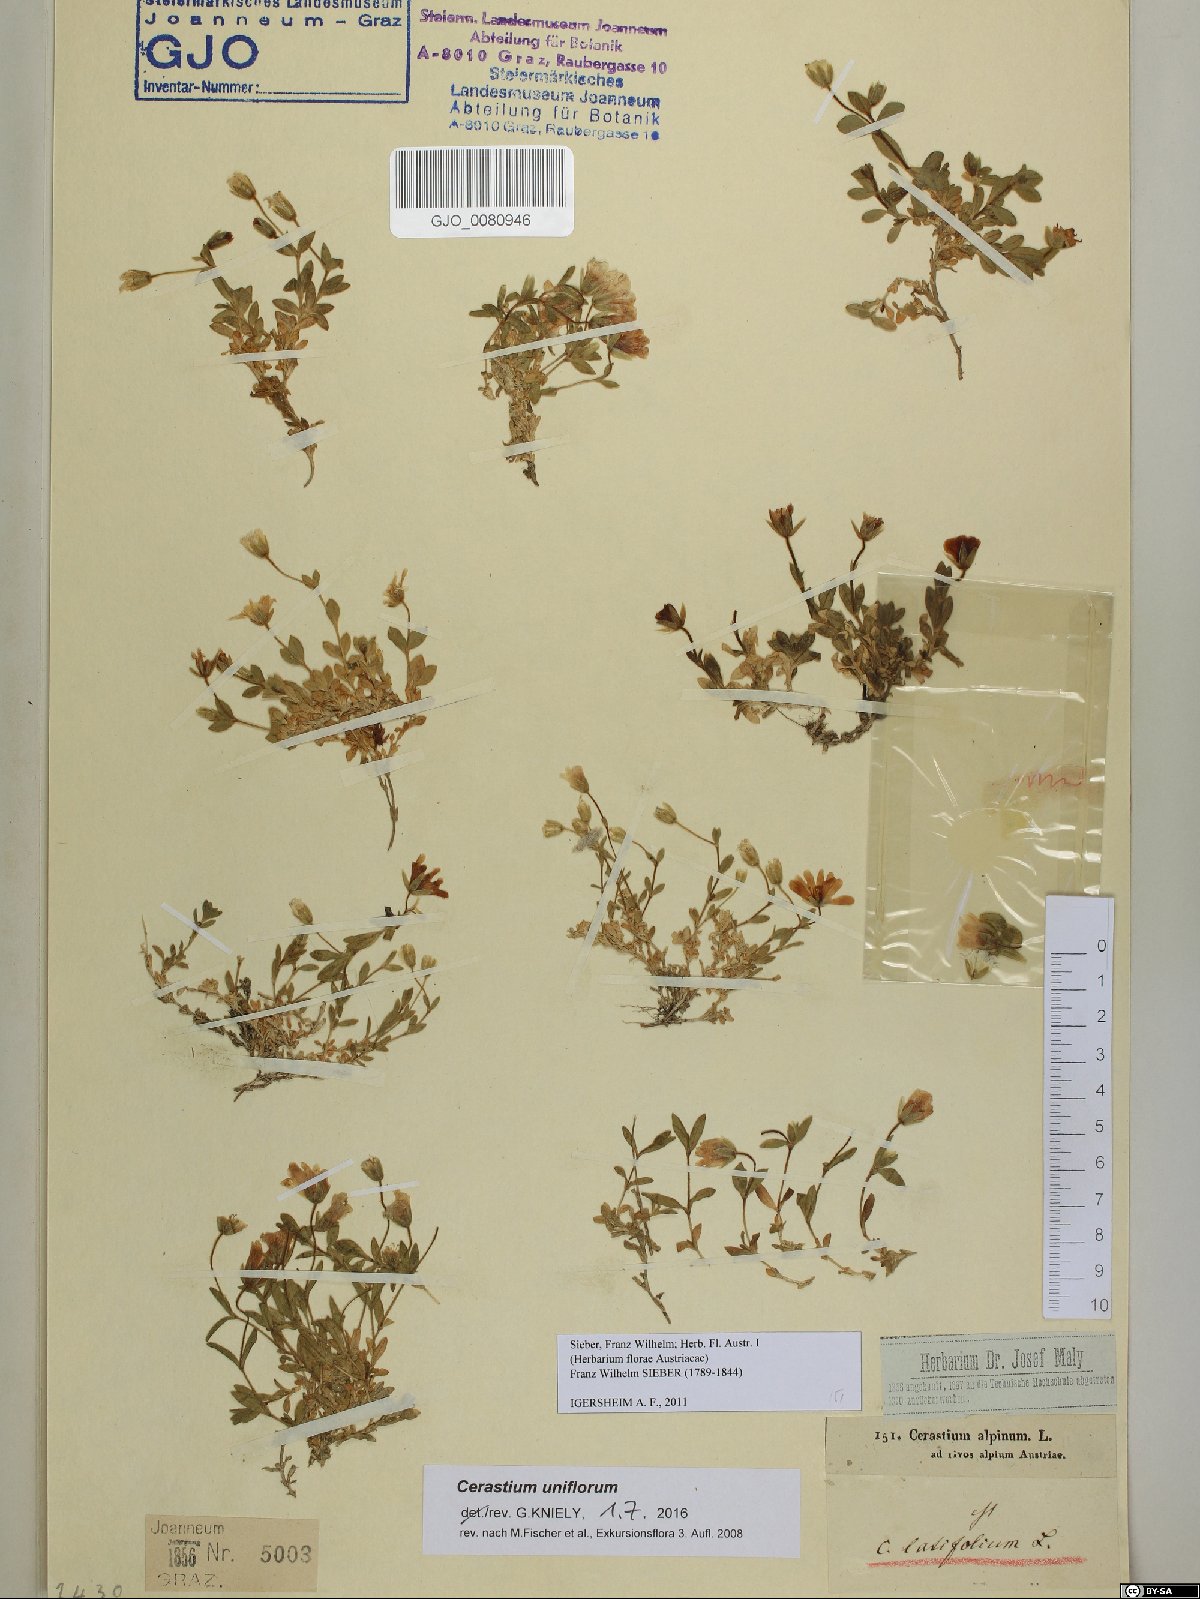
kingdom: Plantae
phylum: Tracheophyta
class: Magnoliopsida
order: Caryophyllales
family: Caryophyllaceae
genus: Cerastium
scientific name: Cerastium uniflorum
